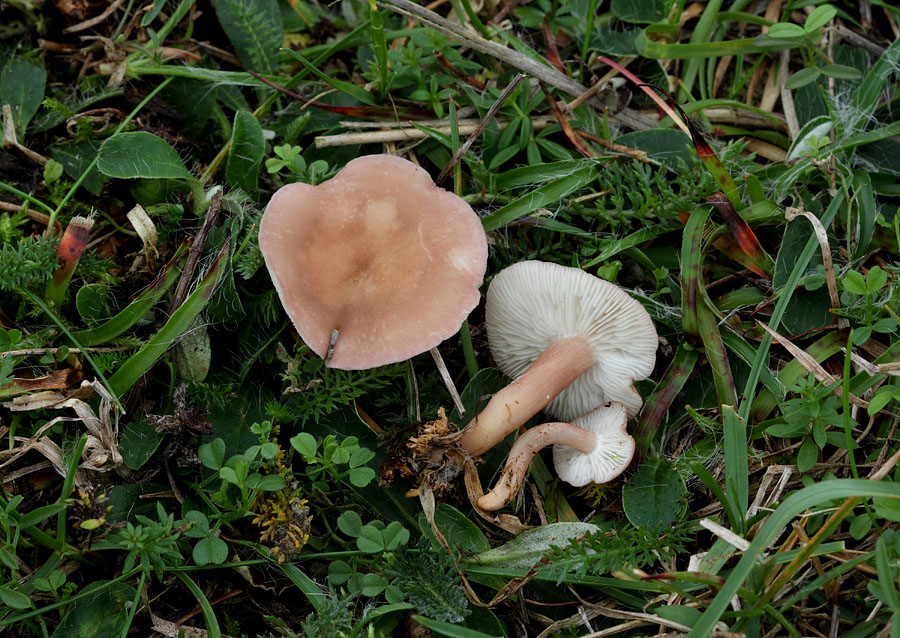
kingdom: Fungi
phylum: Basidiomycota
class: Agaricomycetes
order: Agaricales
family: Lyophyllaceae
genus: Calocybe
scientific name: Calocybe carnea
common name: rosa fagerhat
